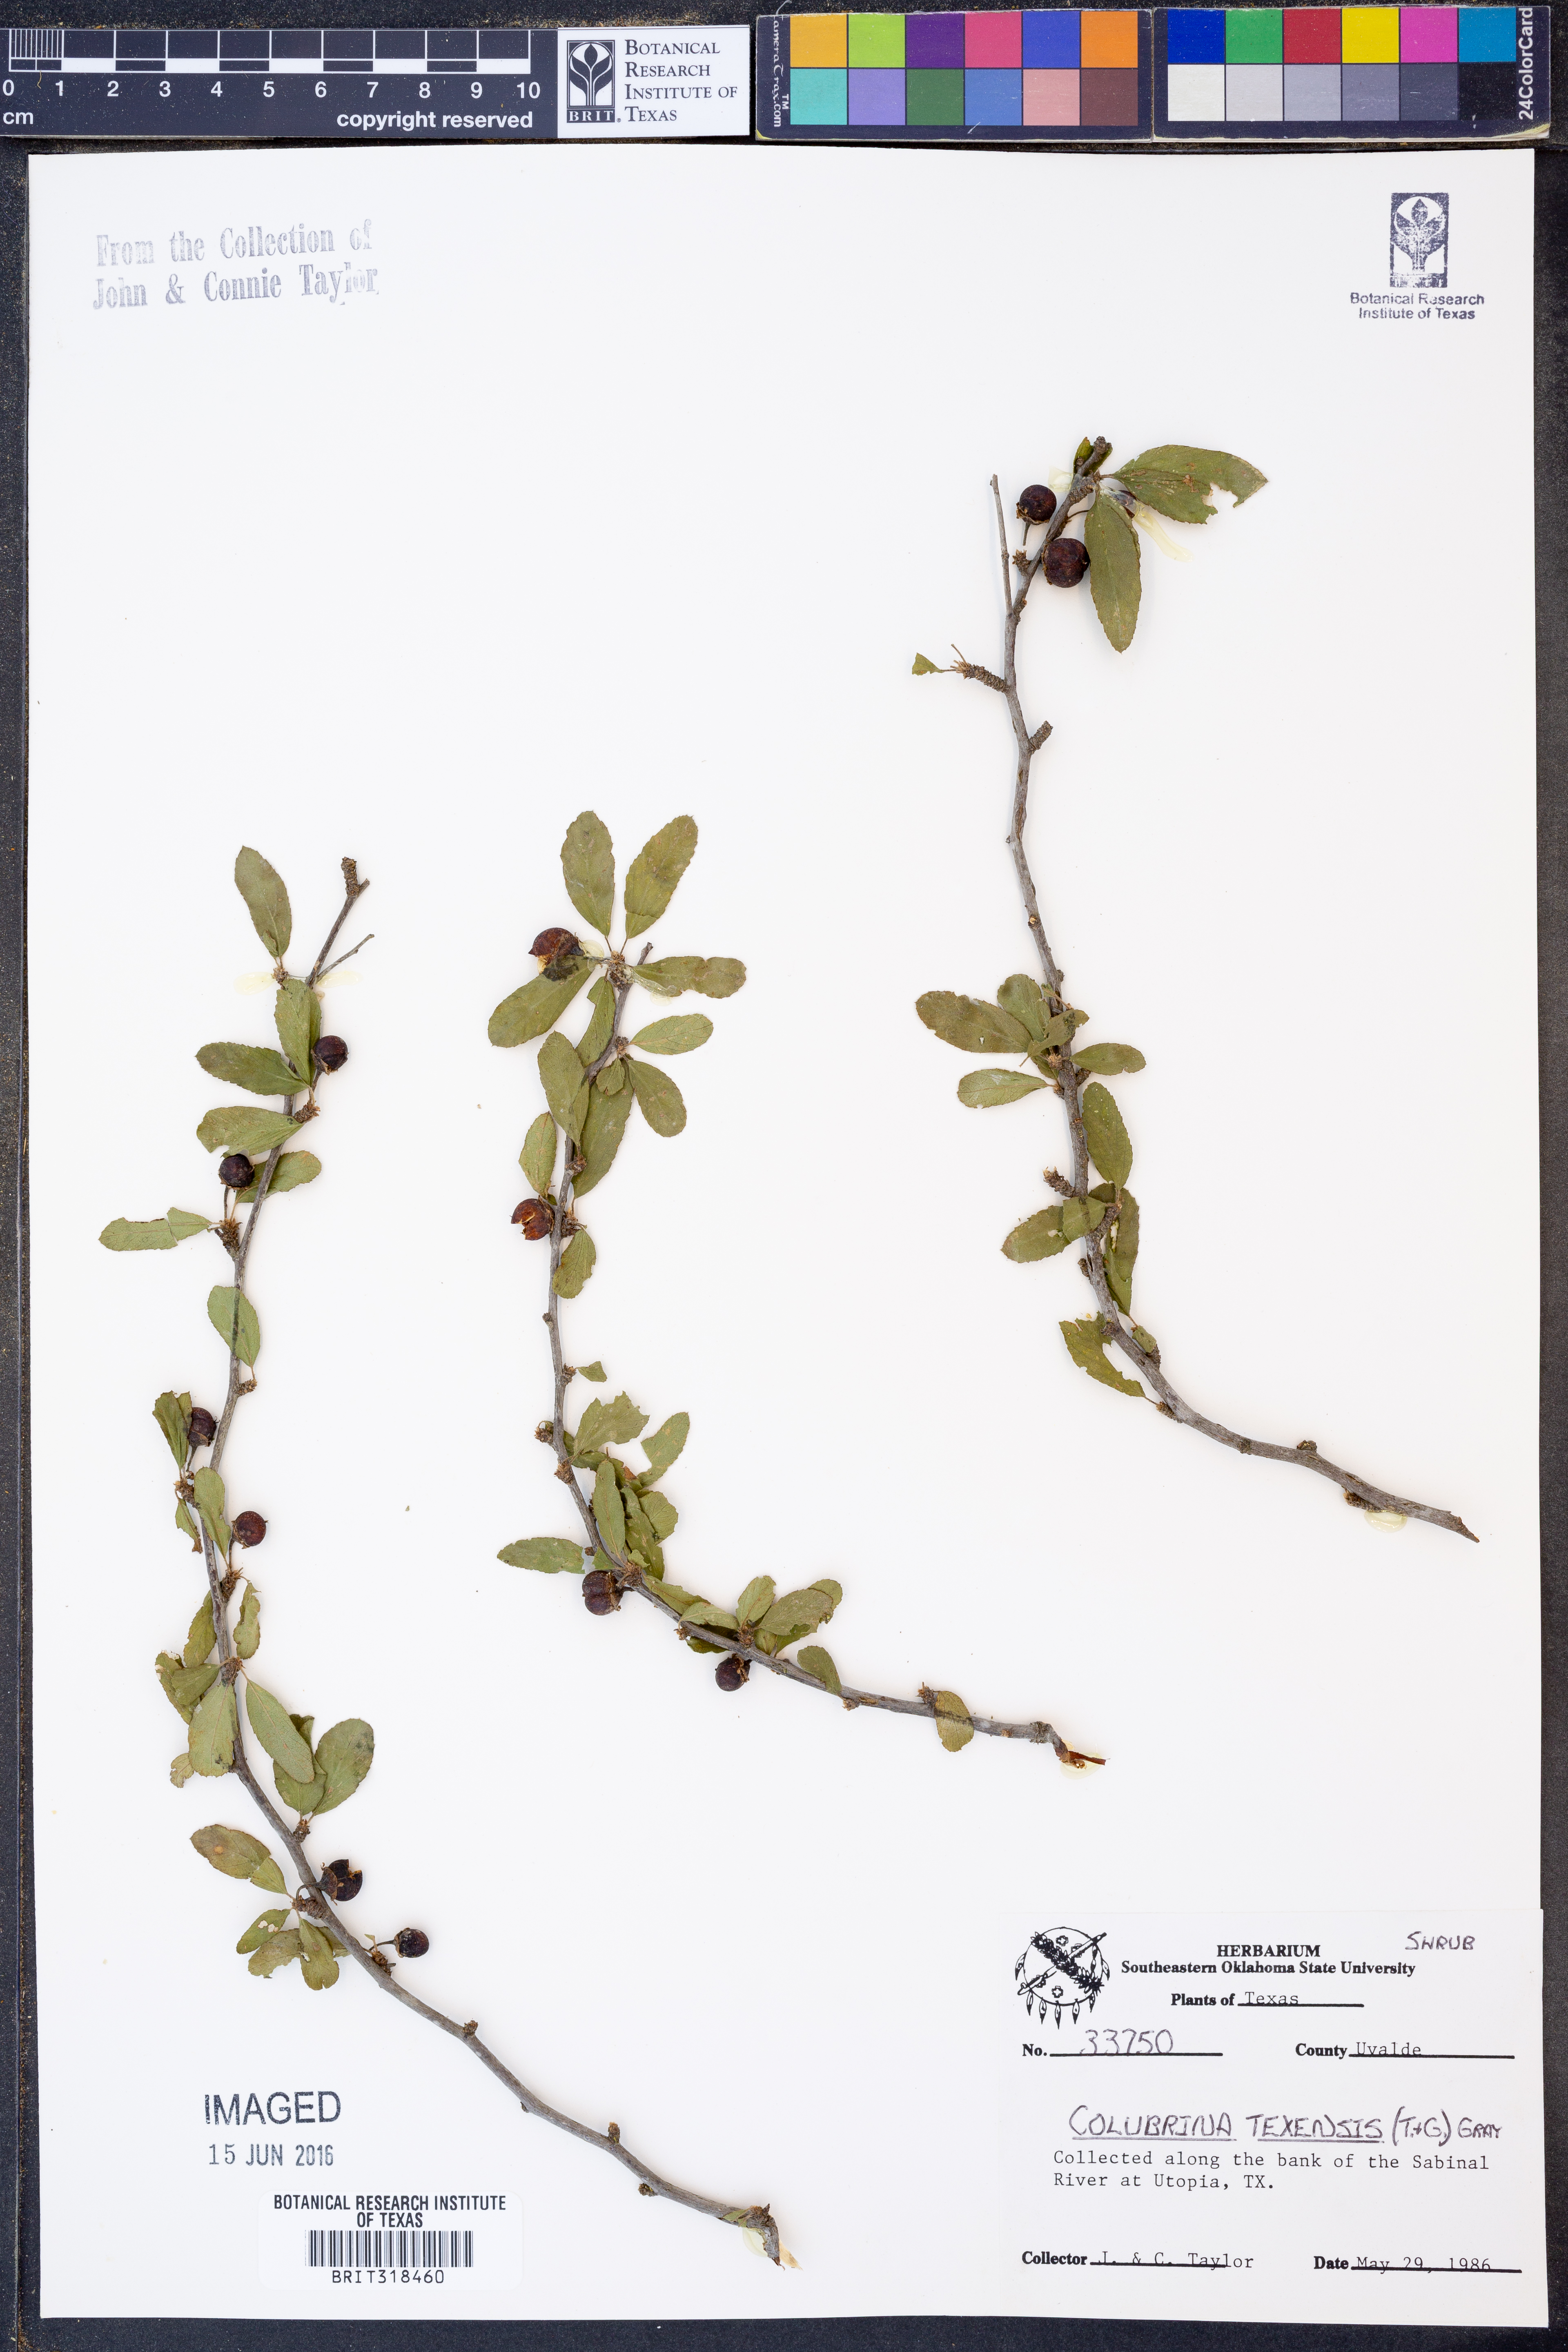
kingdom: Plantae
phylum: Tracheophyta
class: Magnoliopsida
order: Rosales
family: Rhamnaceae
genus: Colubrina
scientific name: Colubrina texensis
